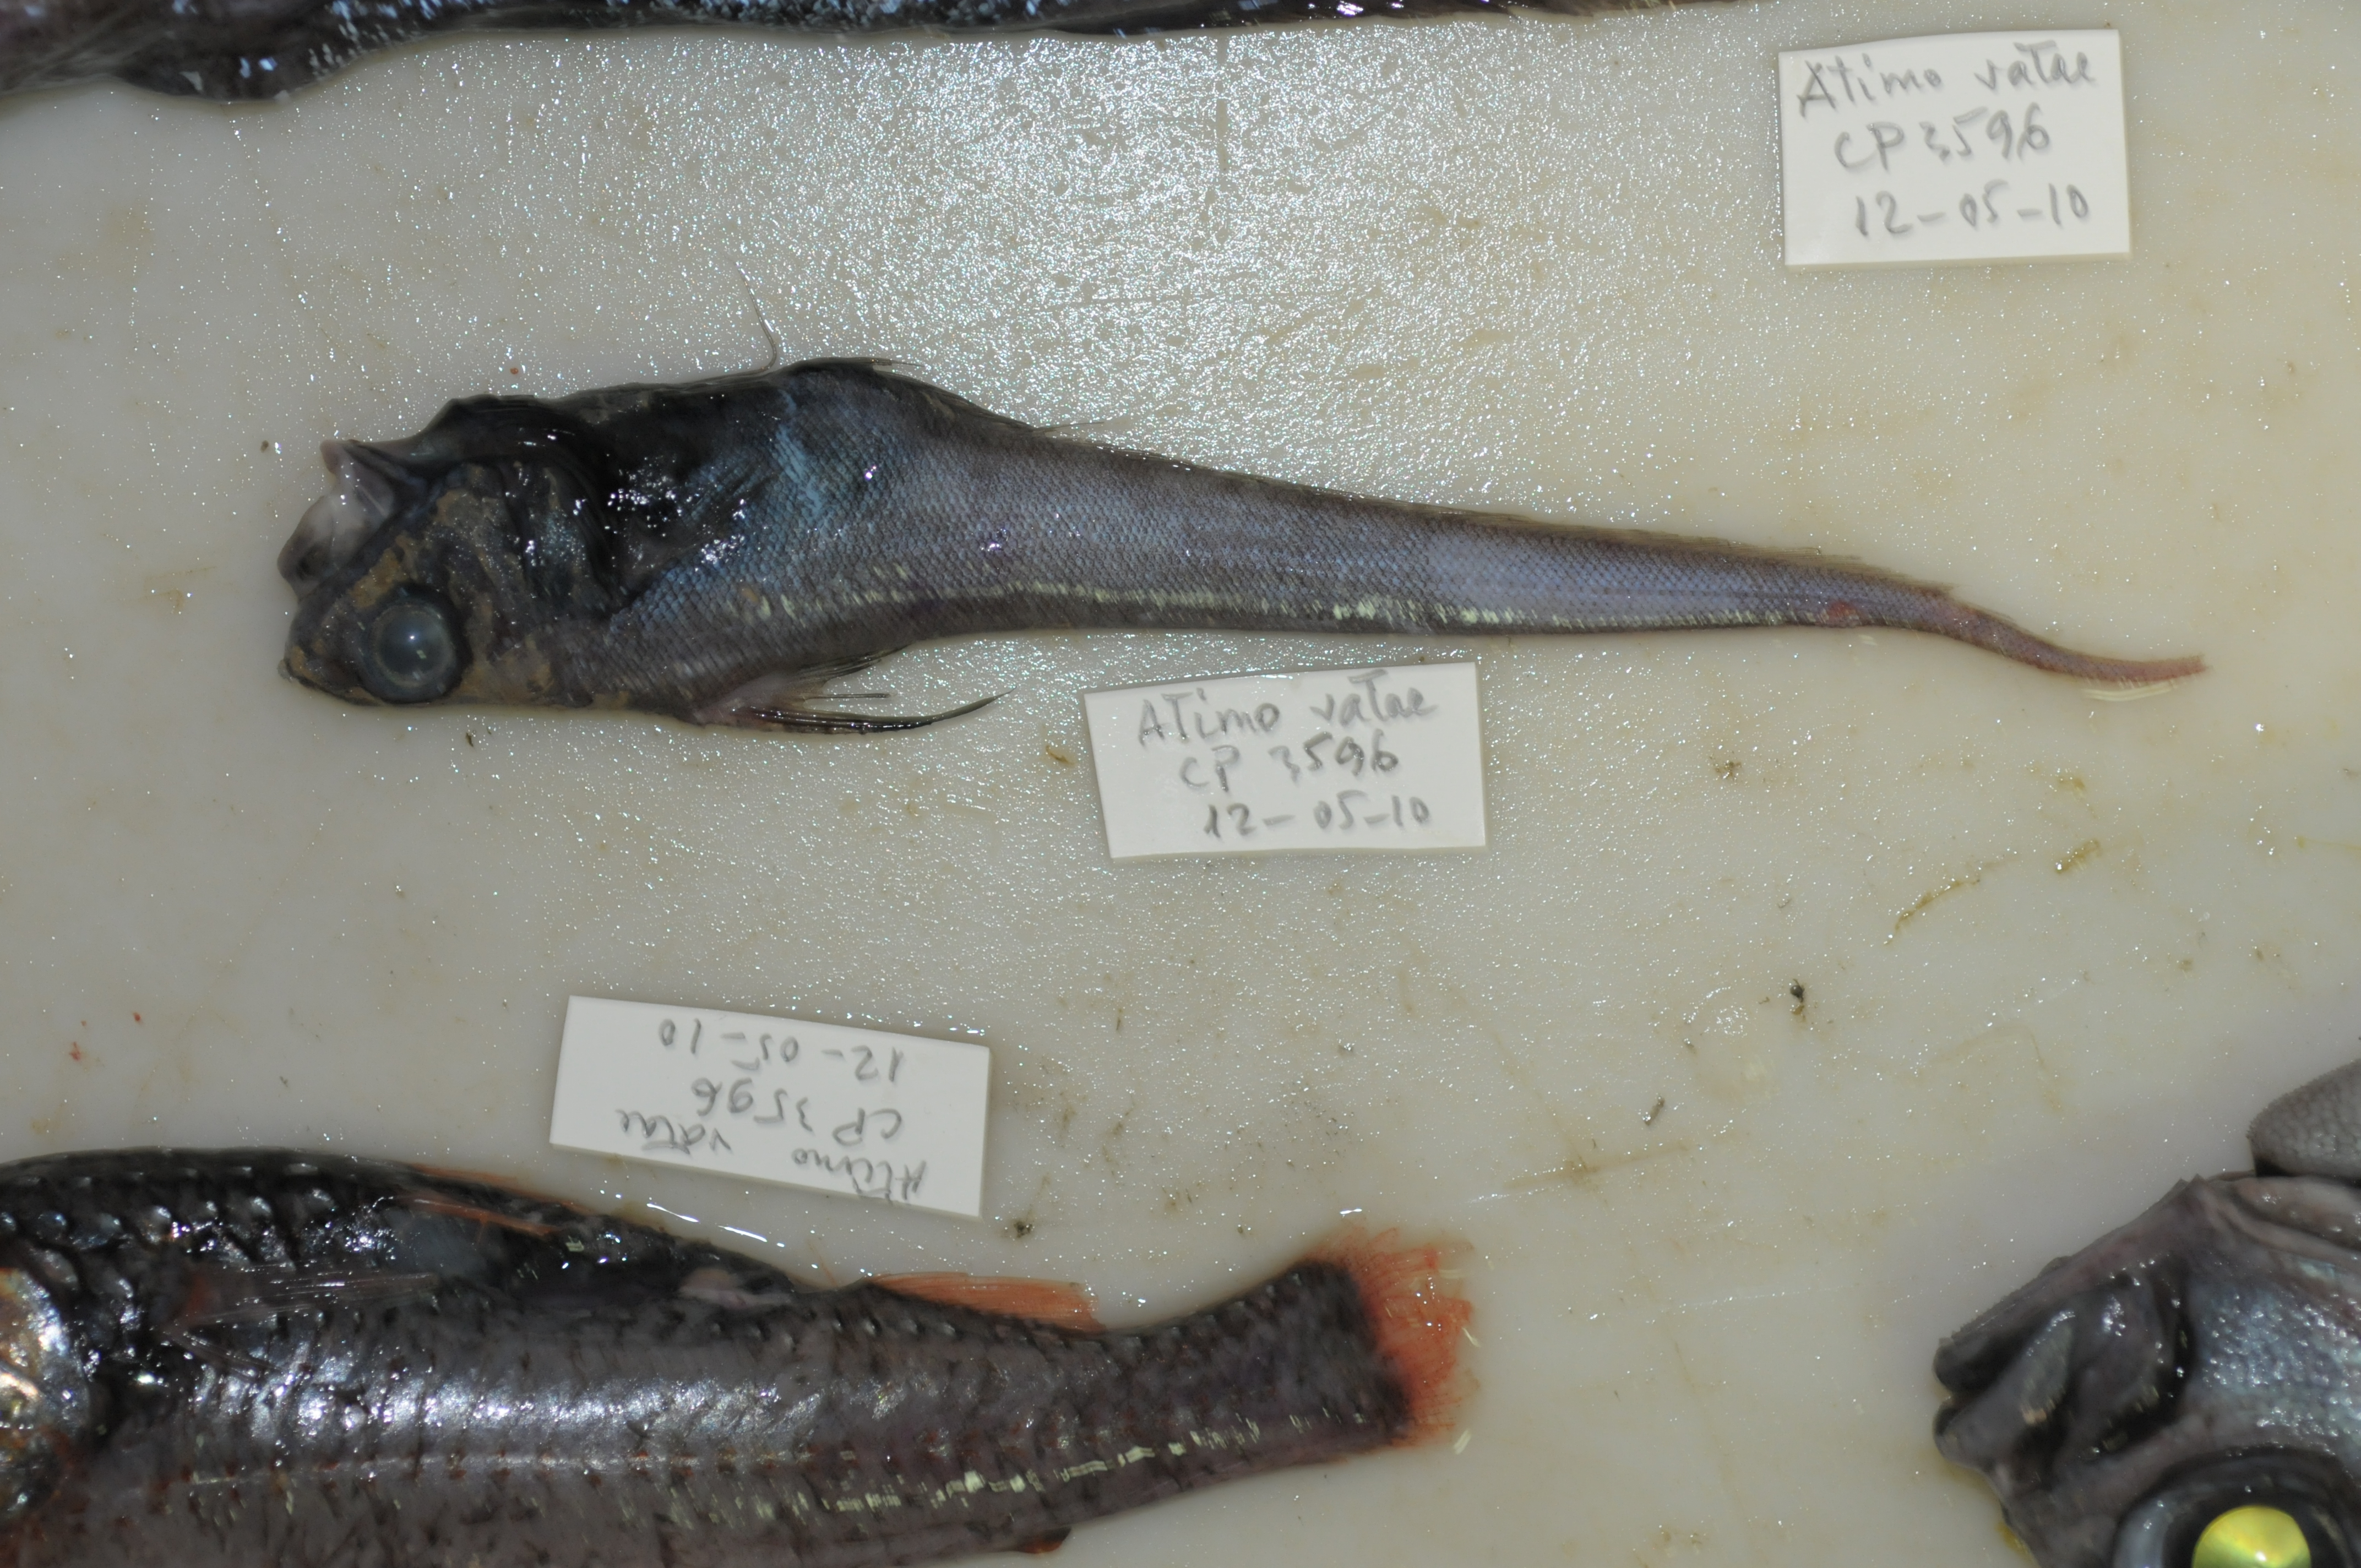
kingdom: Animalia
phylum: Chordata
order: Gadiformes
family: Macrouridae
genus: Nezumia
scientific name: Nezumia semiquincunciata
